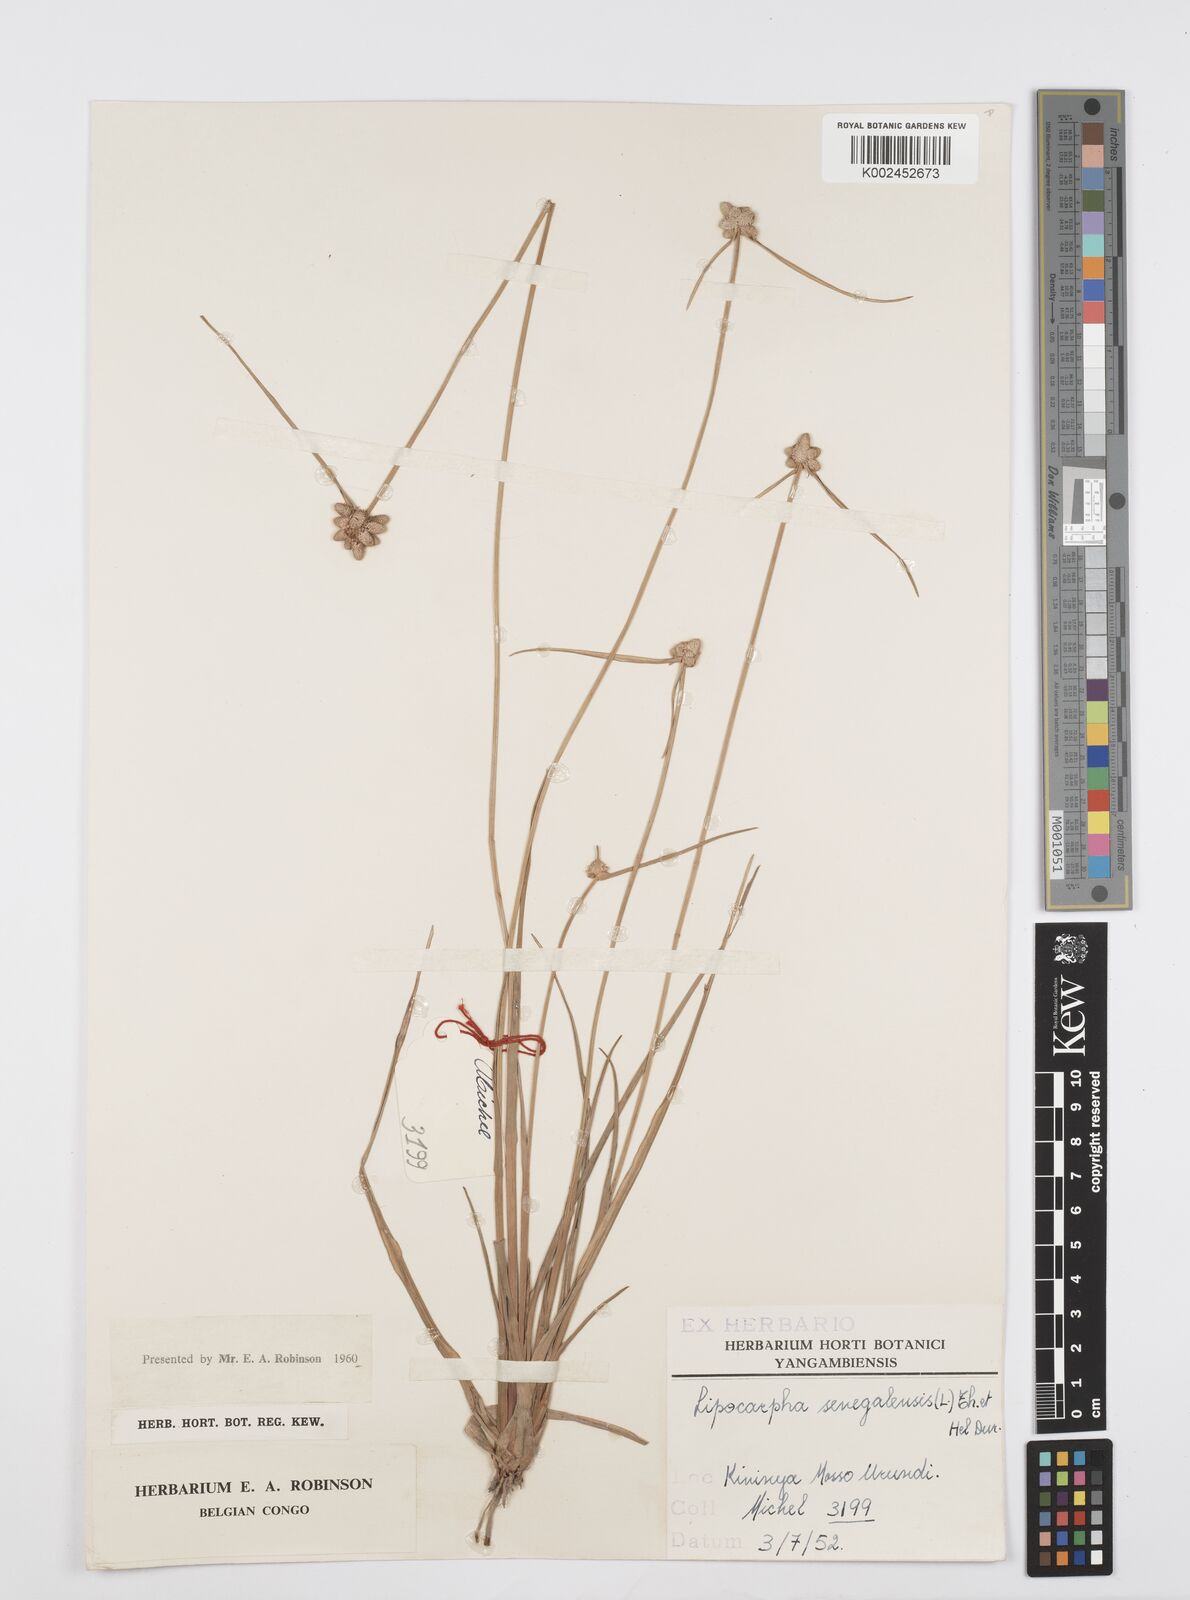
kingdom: Plantae
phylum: Tracheophyta
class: Liliopsida
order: Poales
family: Cyperaceae
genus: Cyperus
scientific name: Cyperus albescens
